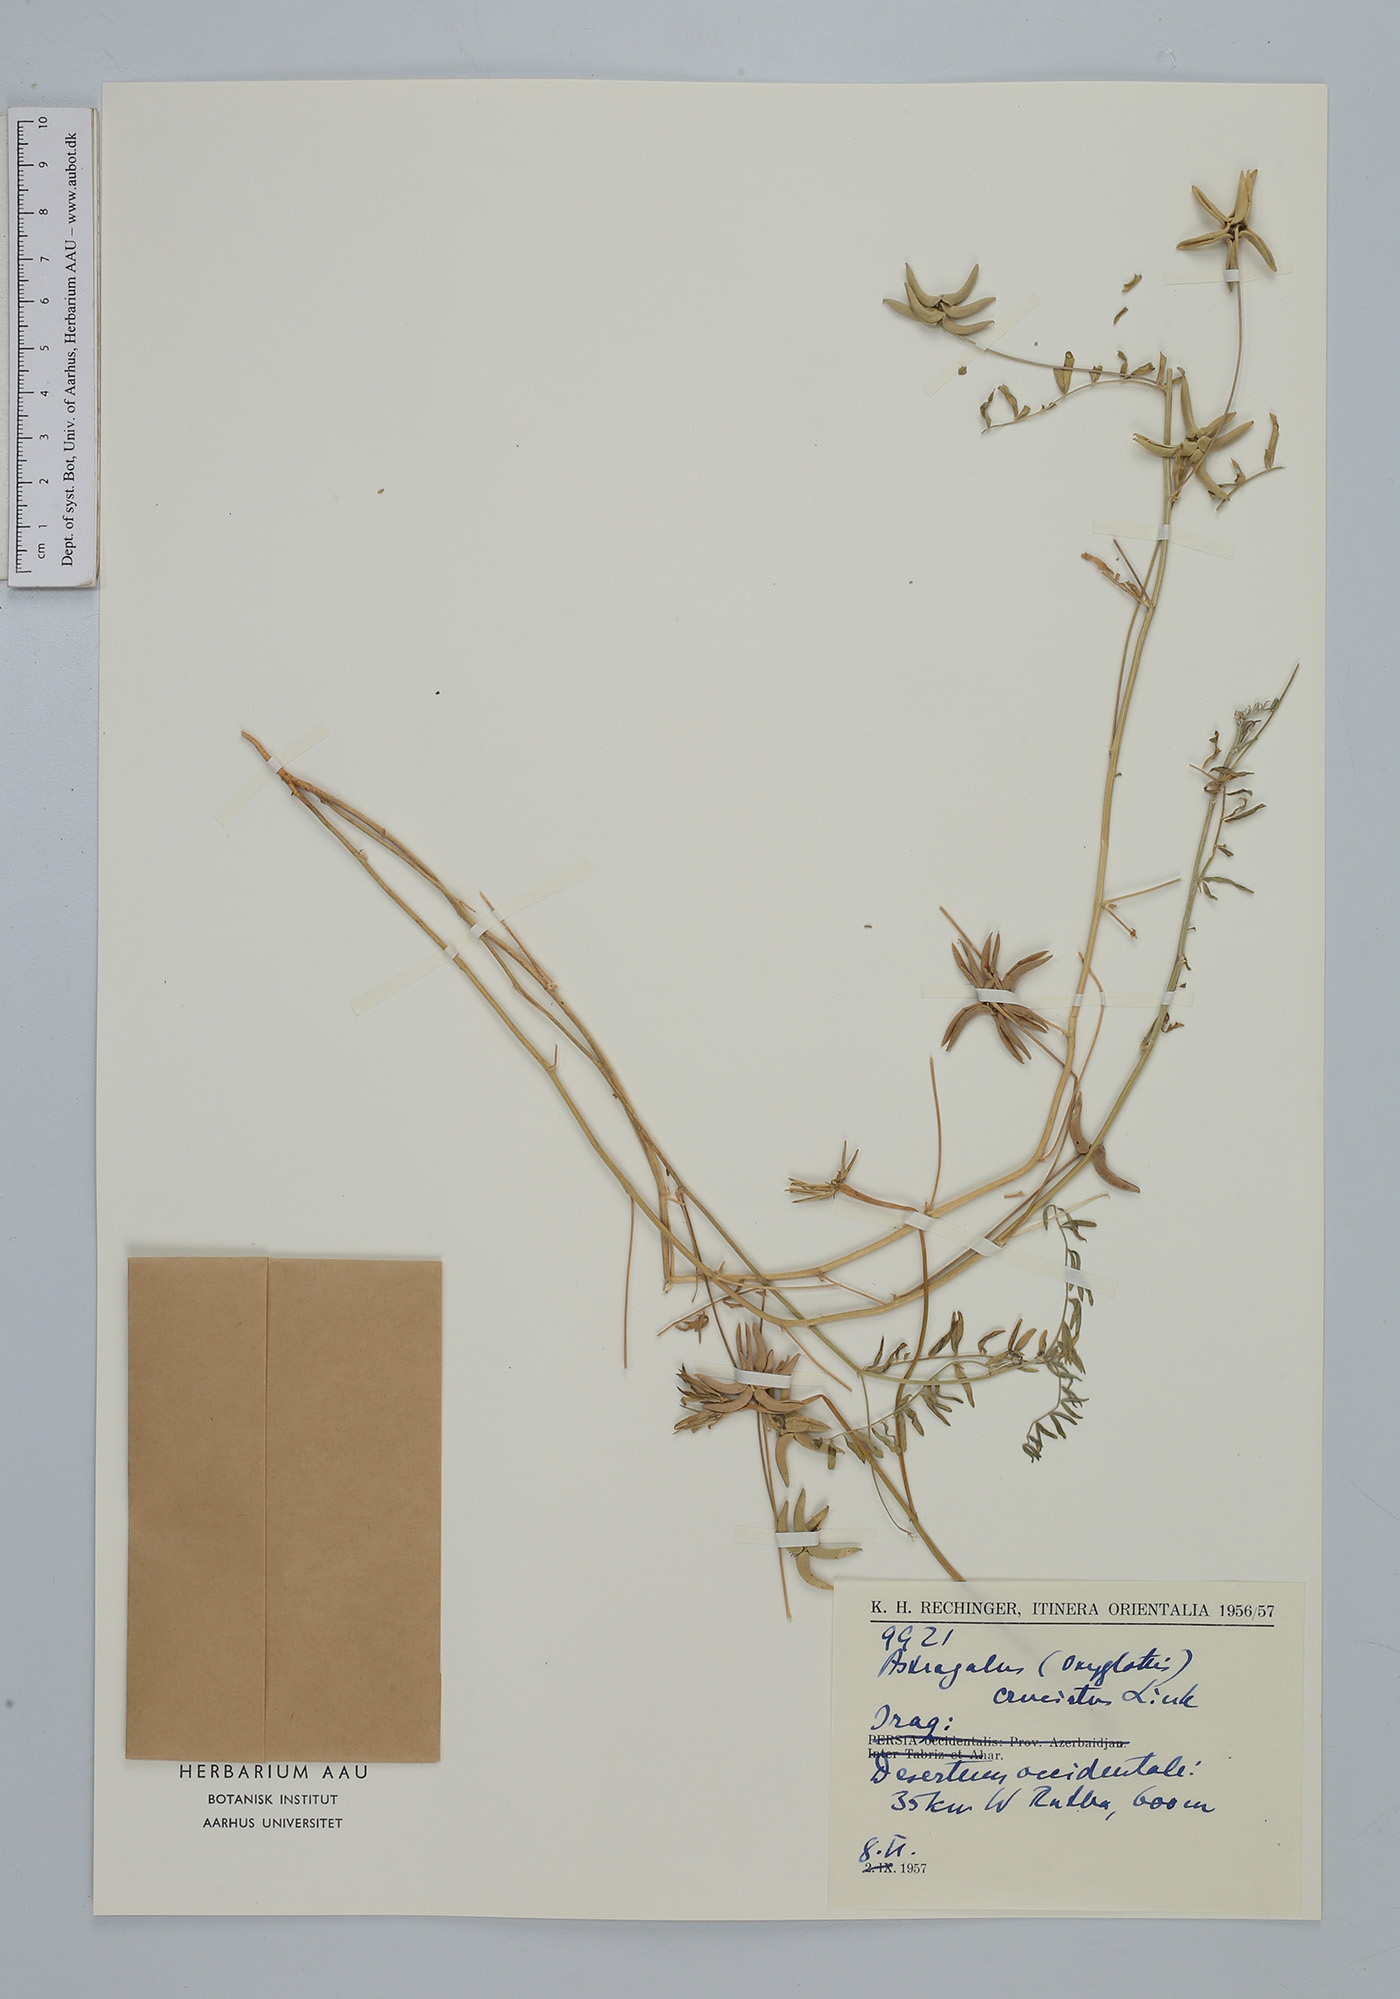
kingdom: Plantae
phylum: Tracheophyta
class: Magnoliopsida
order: Fabales
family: Fabaceae
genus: Astragalus
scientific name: Astragalus crenatus
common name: Milk vetch
